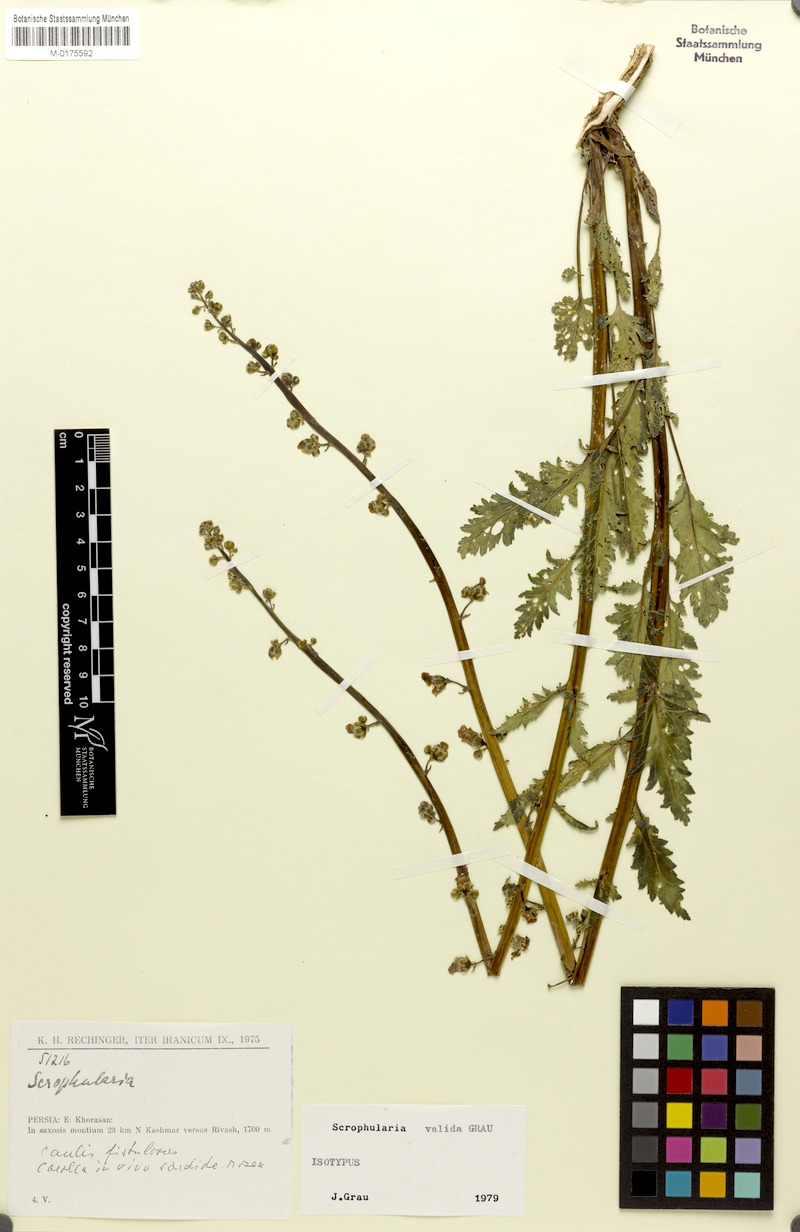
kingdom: Plantae
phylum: Tracheophyta
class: Magnoliopsida
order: Lamiales
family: Scrophulariaceae
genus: Scrophularia
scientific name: Scrophularia valida
